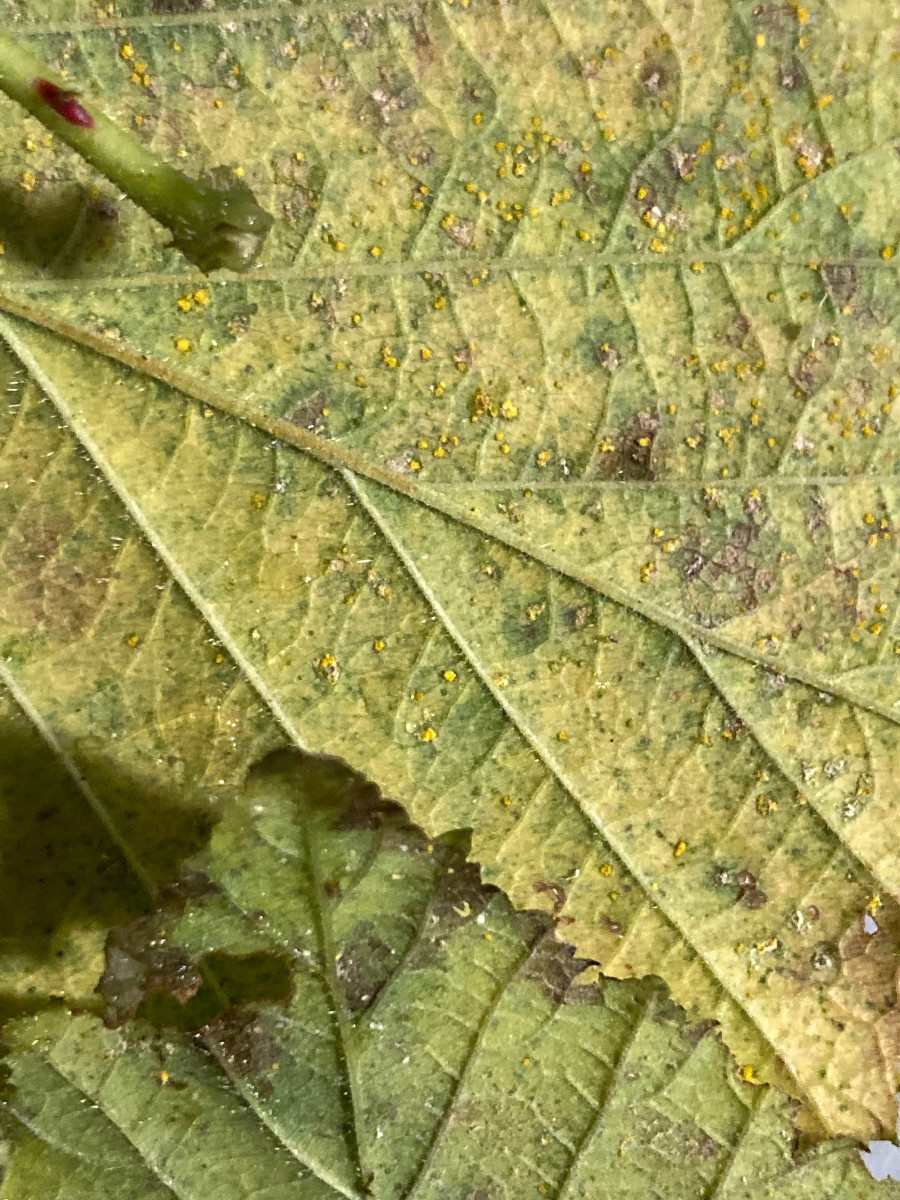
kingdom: Fungi
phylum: Basidiomycota
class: Pucciniomycetes
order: Pucciniales
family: Phragmidiaceae
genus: Phragmidium
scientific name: Phragmidium
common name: flercellerust
